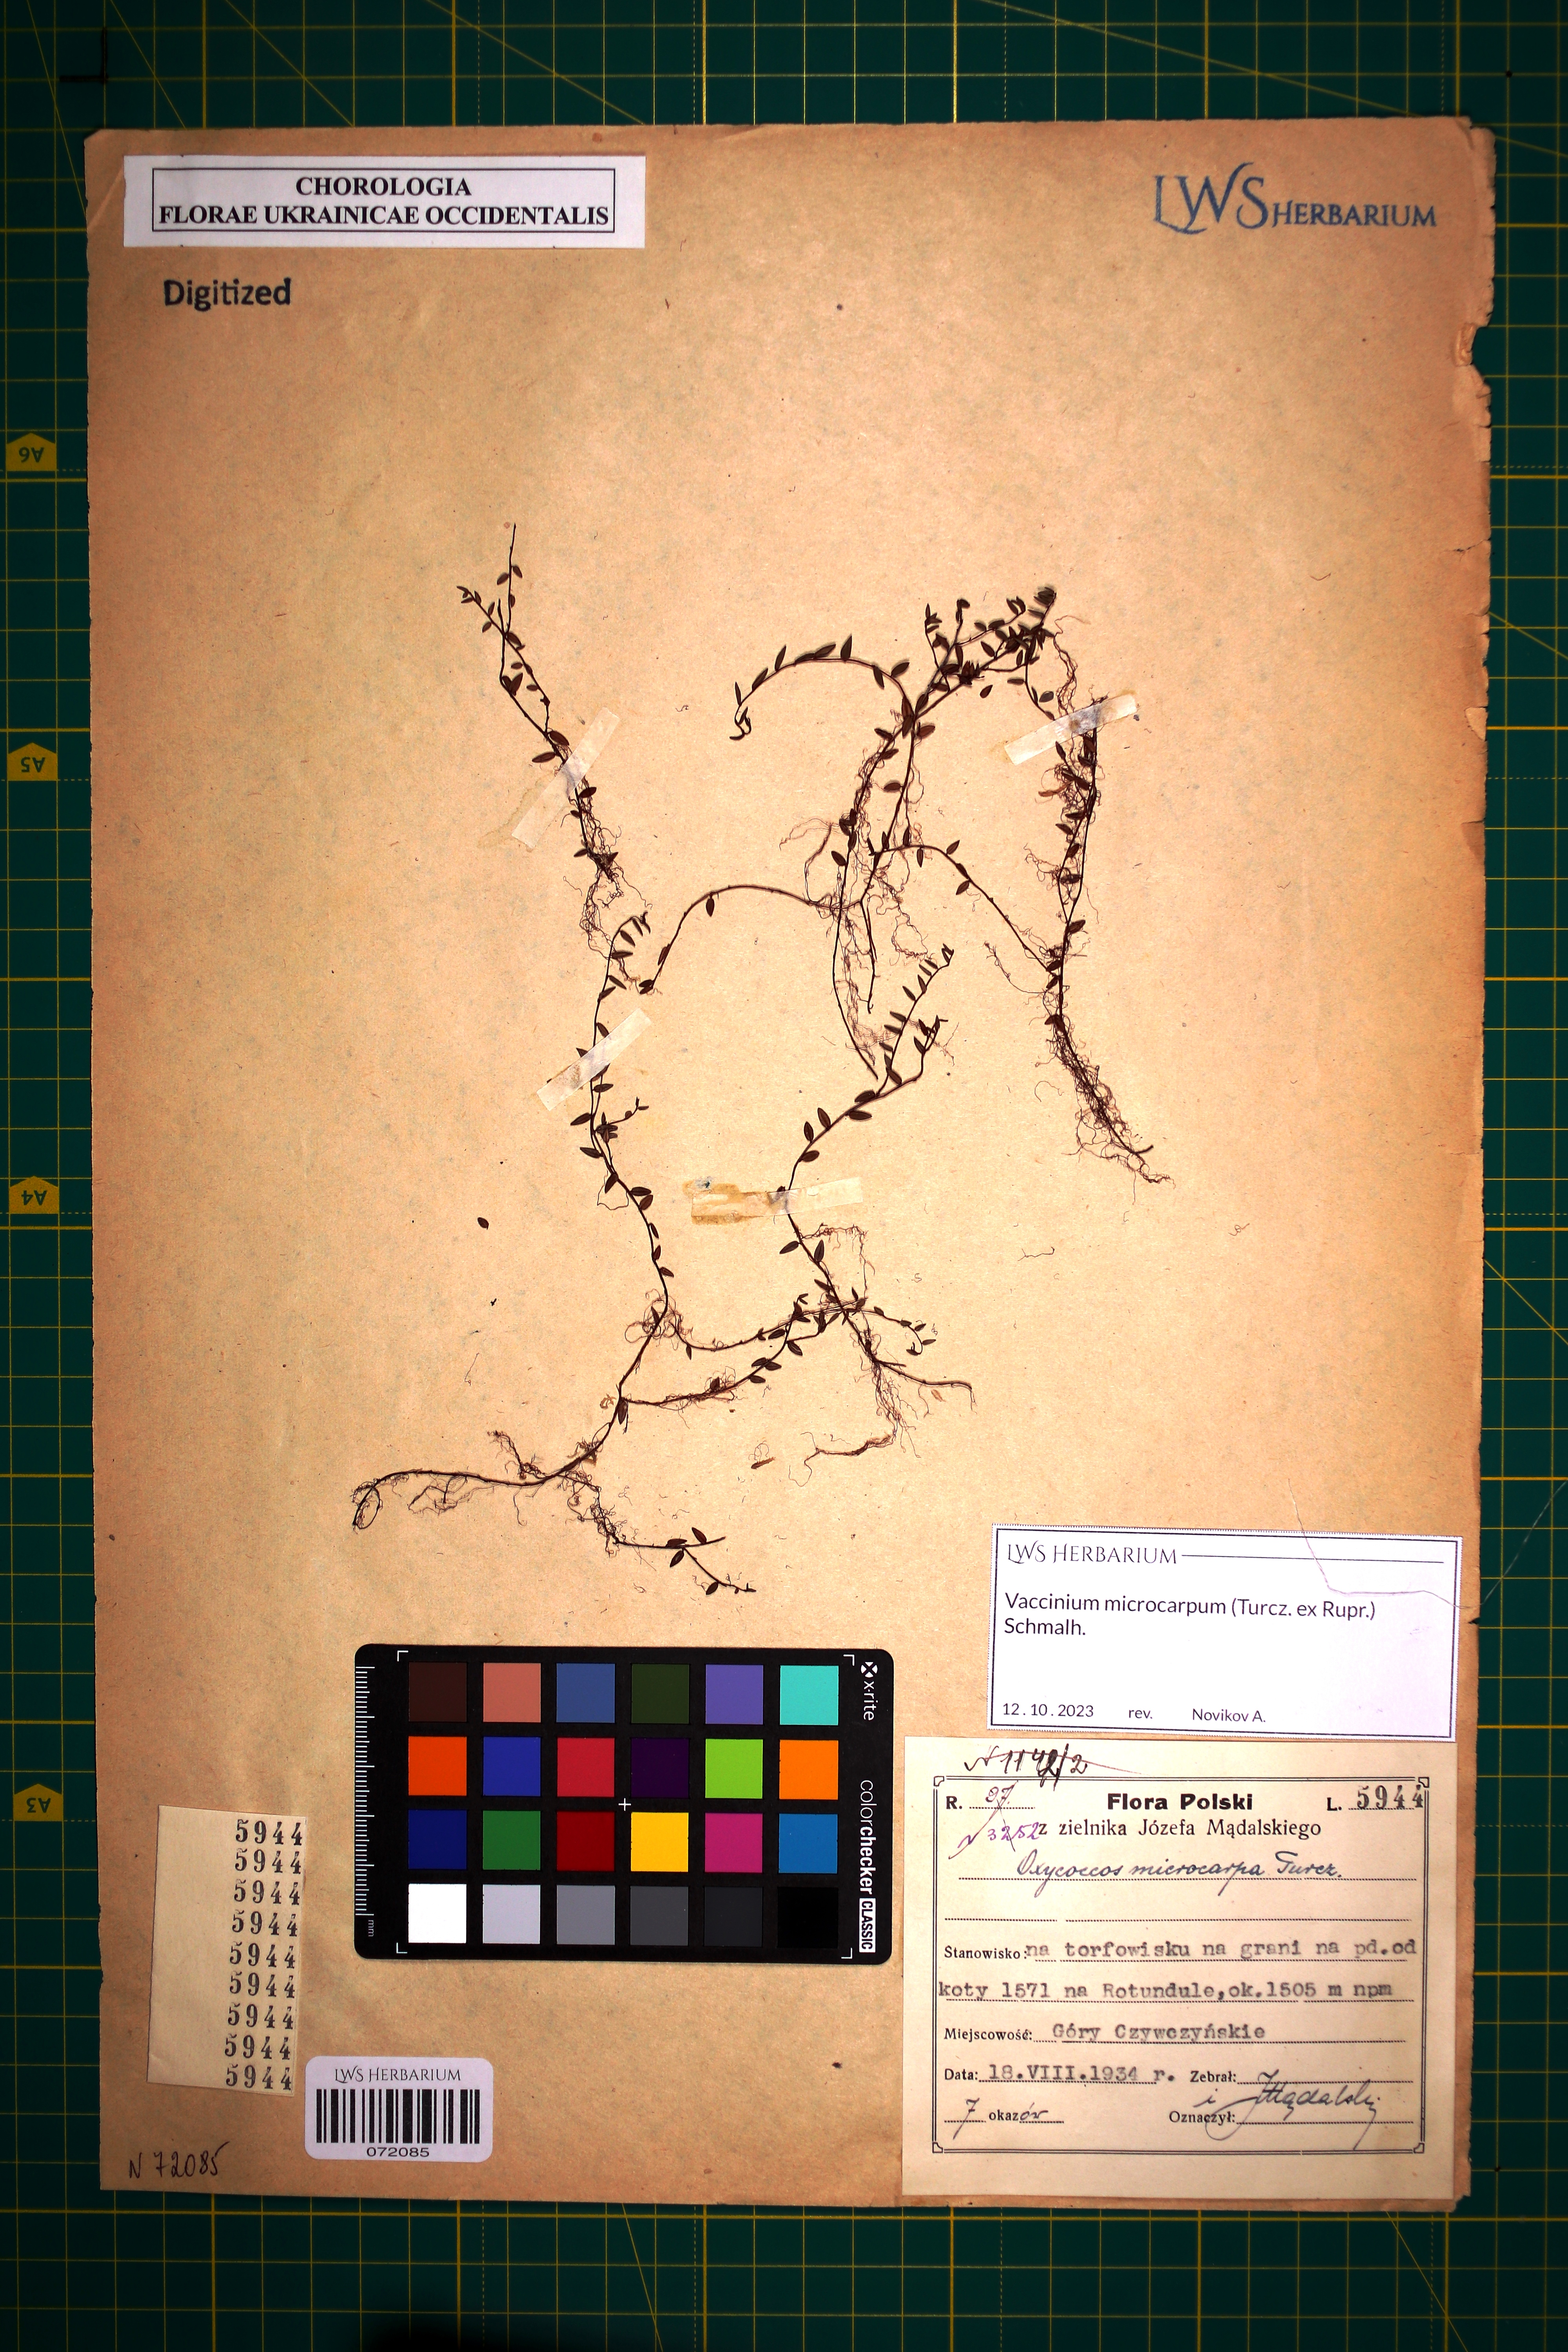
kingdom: Plantae
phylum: Tracheophyta
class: Magnoliopsida
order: Ericales
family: Ericaceae
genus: Vaccinium
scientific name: Vaccinium microcarpum
